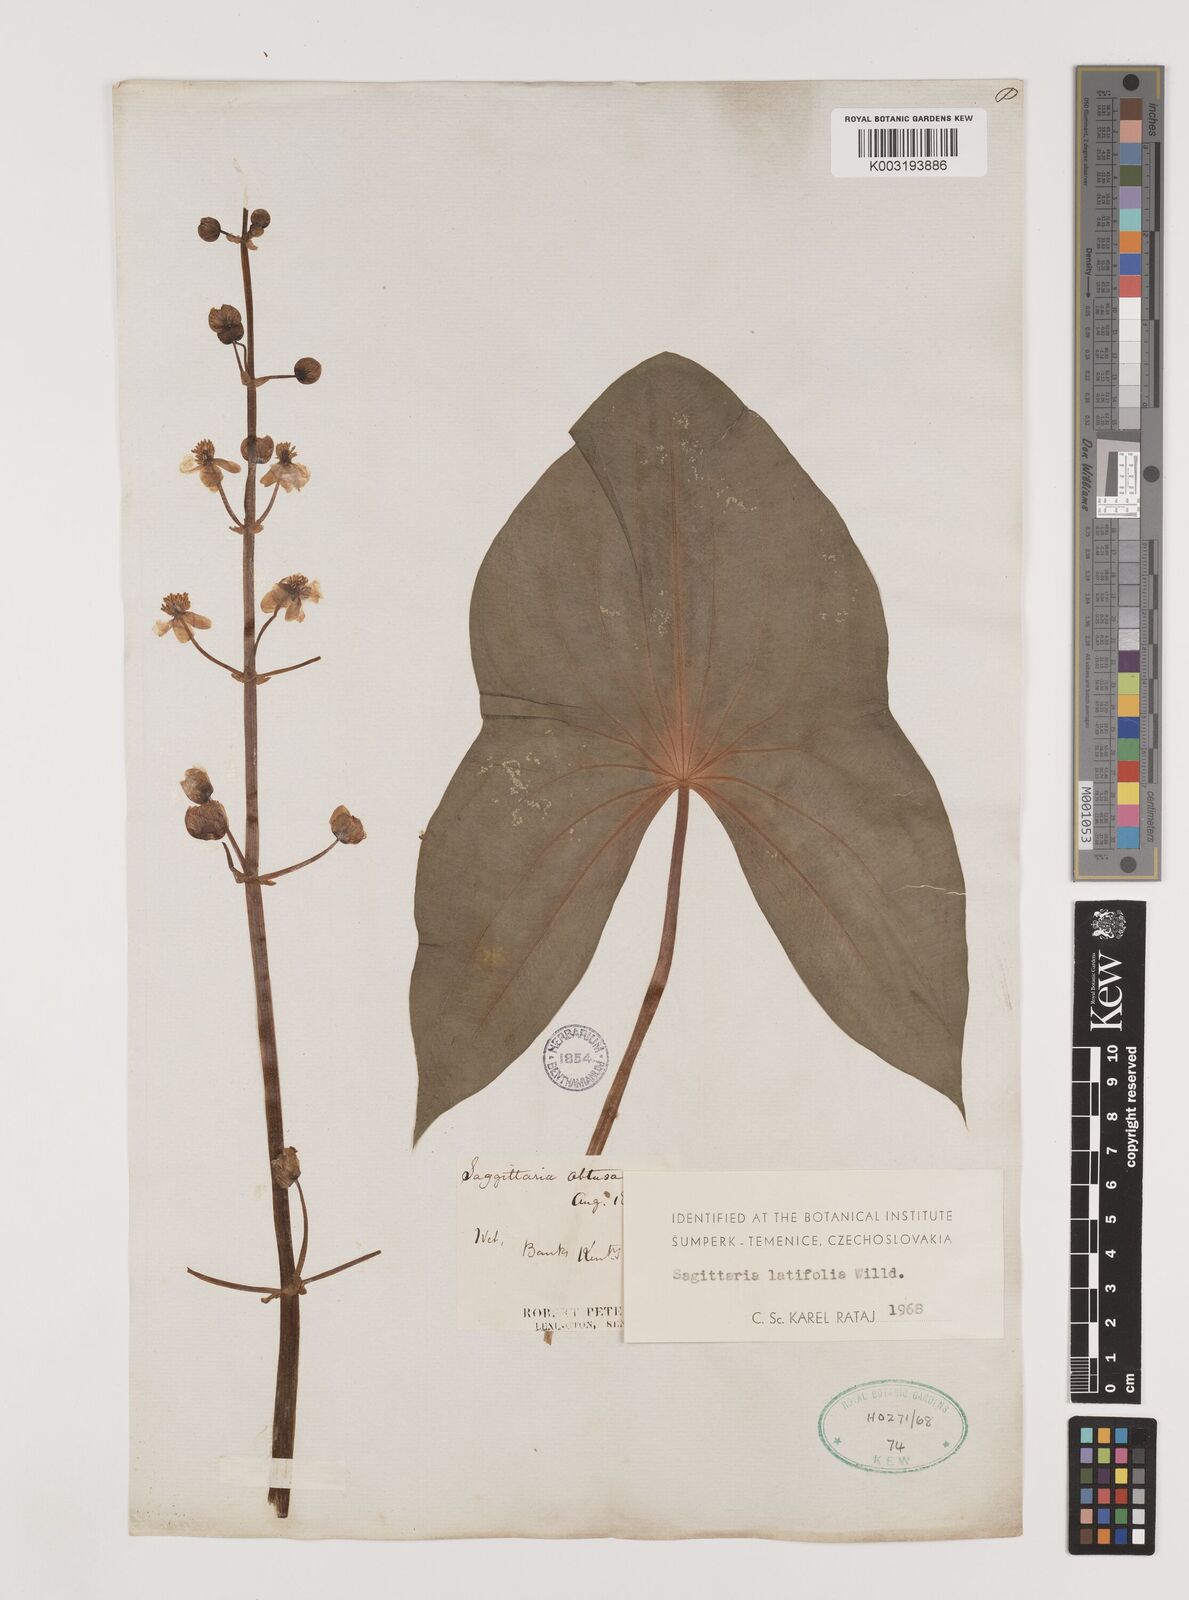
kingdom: Plantae
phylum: Tracheophyta
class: Liliopsida
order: Alismatales
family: Alismataceae
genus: Sagittaria
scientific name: Sagittaria latifolia
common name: Duck-potato
